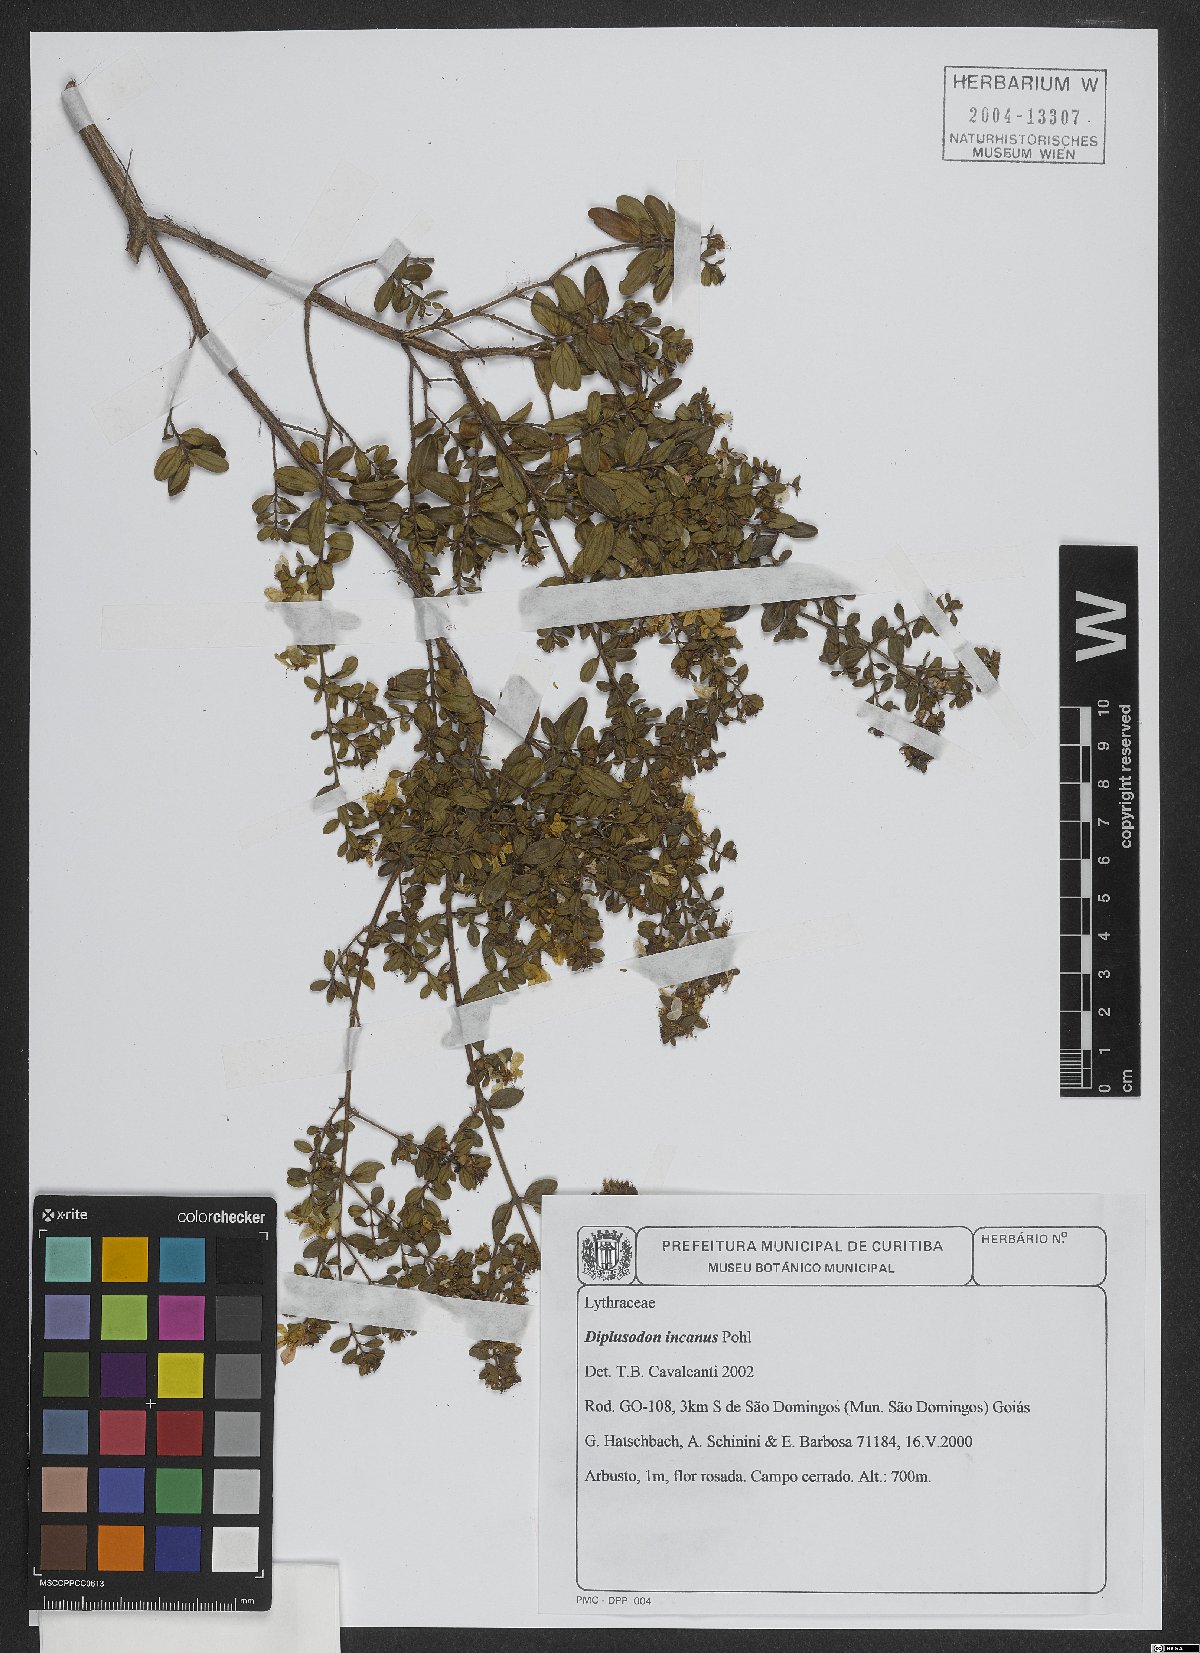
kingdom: Plantae
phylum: Tracheophyta
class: Magnoliopsida
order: Myrtales
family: Lythraceae
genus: Diplusodon
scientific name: Diplusodon incanus
